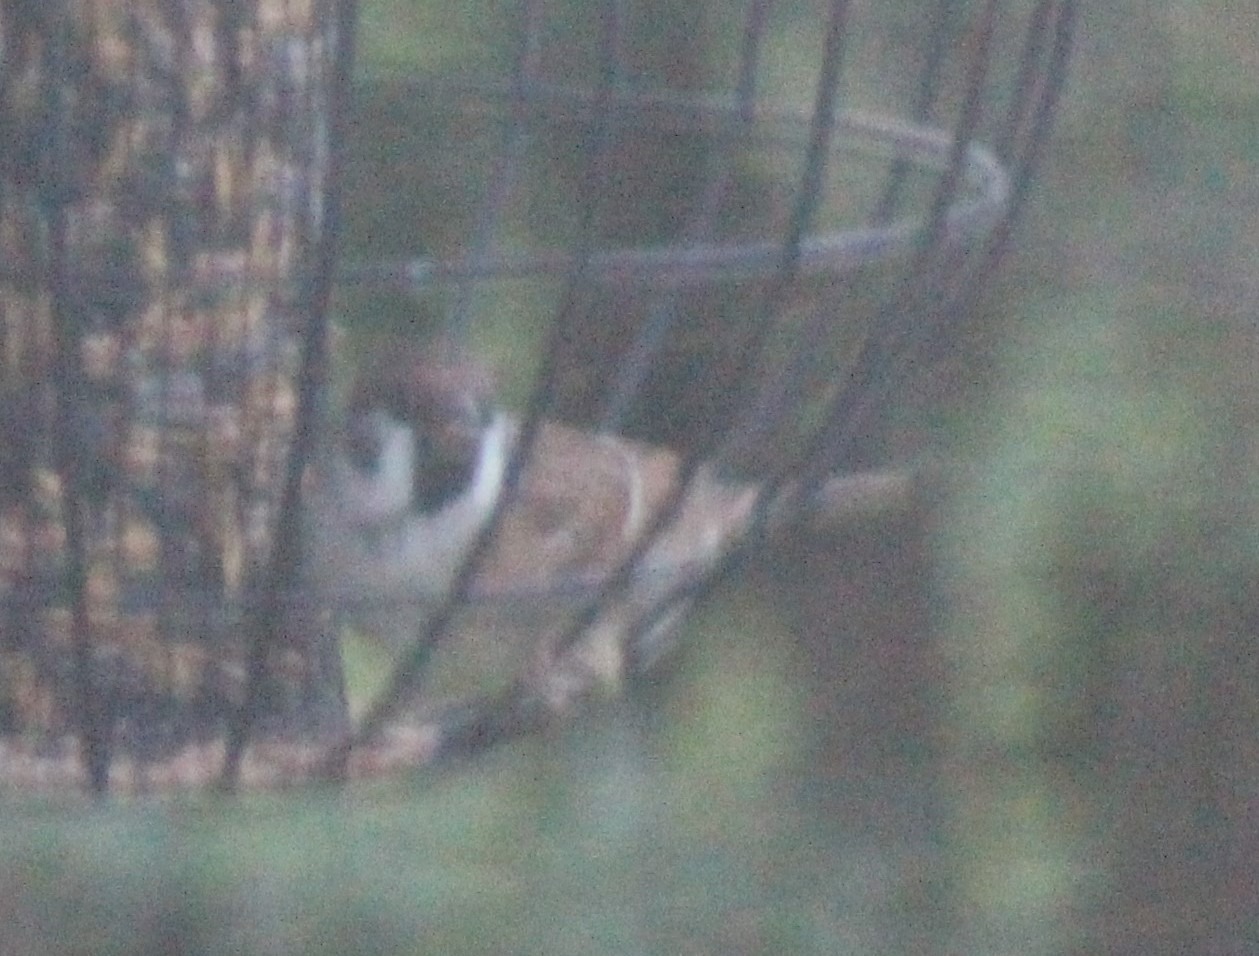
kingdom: Animalia
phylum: Chordata
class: Aves
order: Passeriformes
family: Passeridae
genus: Passer
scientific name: Passer montanus
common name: Skovspurv
